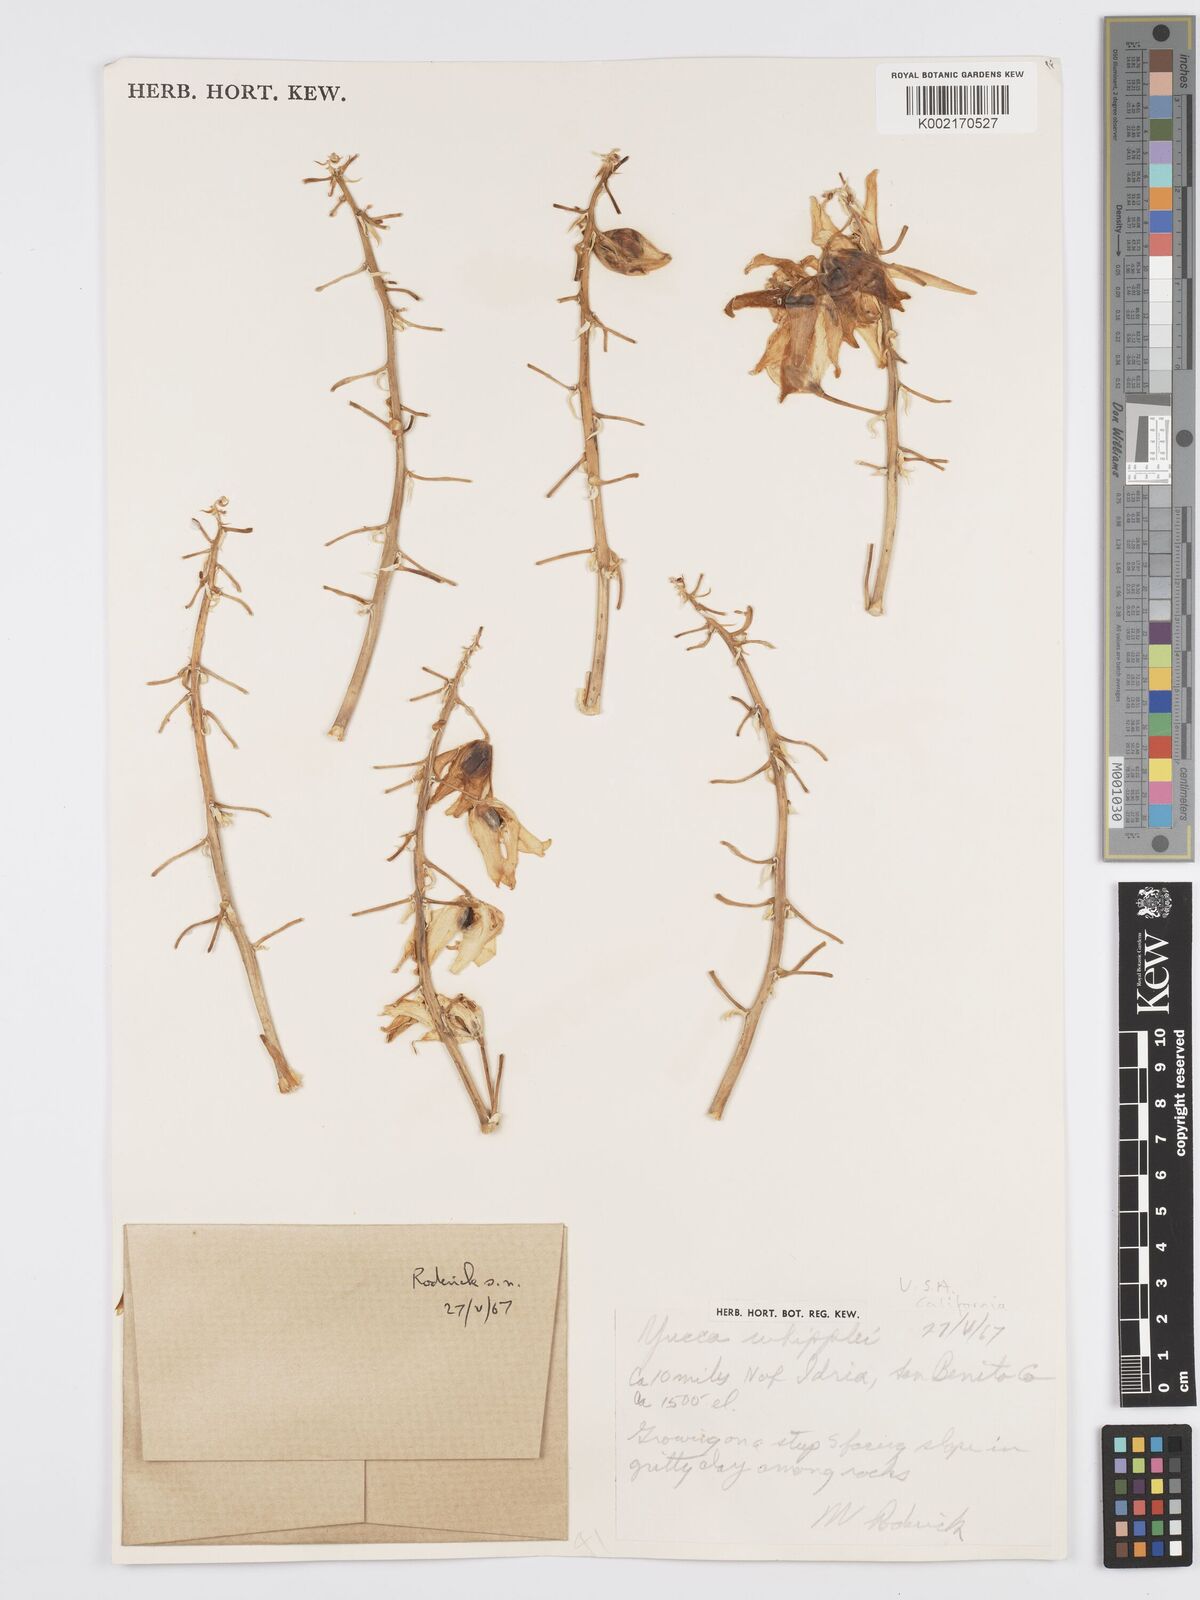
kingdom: Plantae
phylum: Tracheophyta
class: Liliopsida
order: Asparagales
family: Asparagaceae
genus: Hesperoyucca
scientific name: Hesperoyucca whipplei
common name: Our lord's-candle
